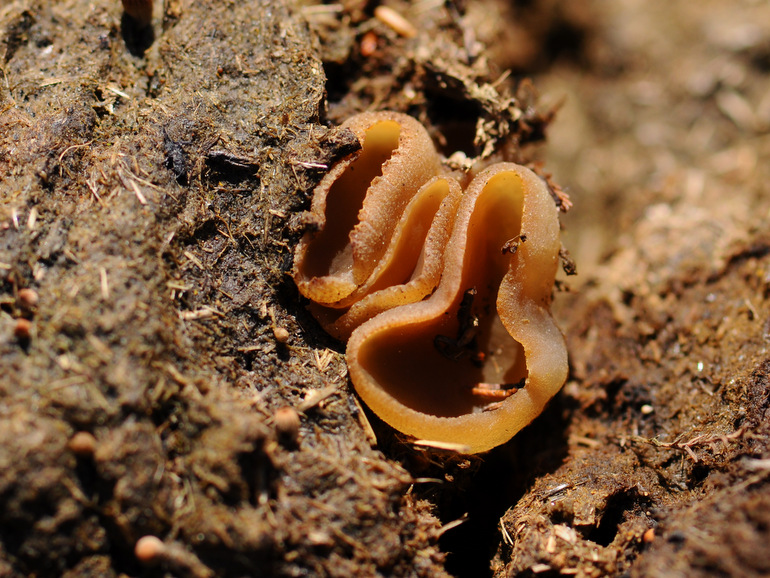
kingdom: Fungi
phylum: Ascomycota
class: Pezizomycetes
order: Pezizales
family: Pezizaceae
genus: Peziza
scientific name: Peziza fimeti
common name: møg-bægersvamp
